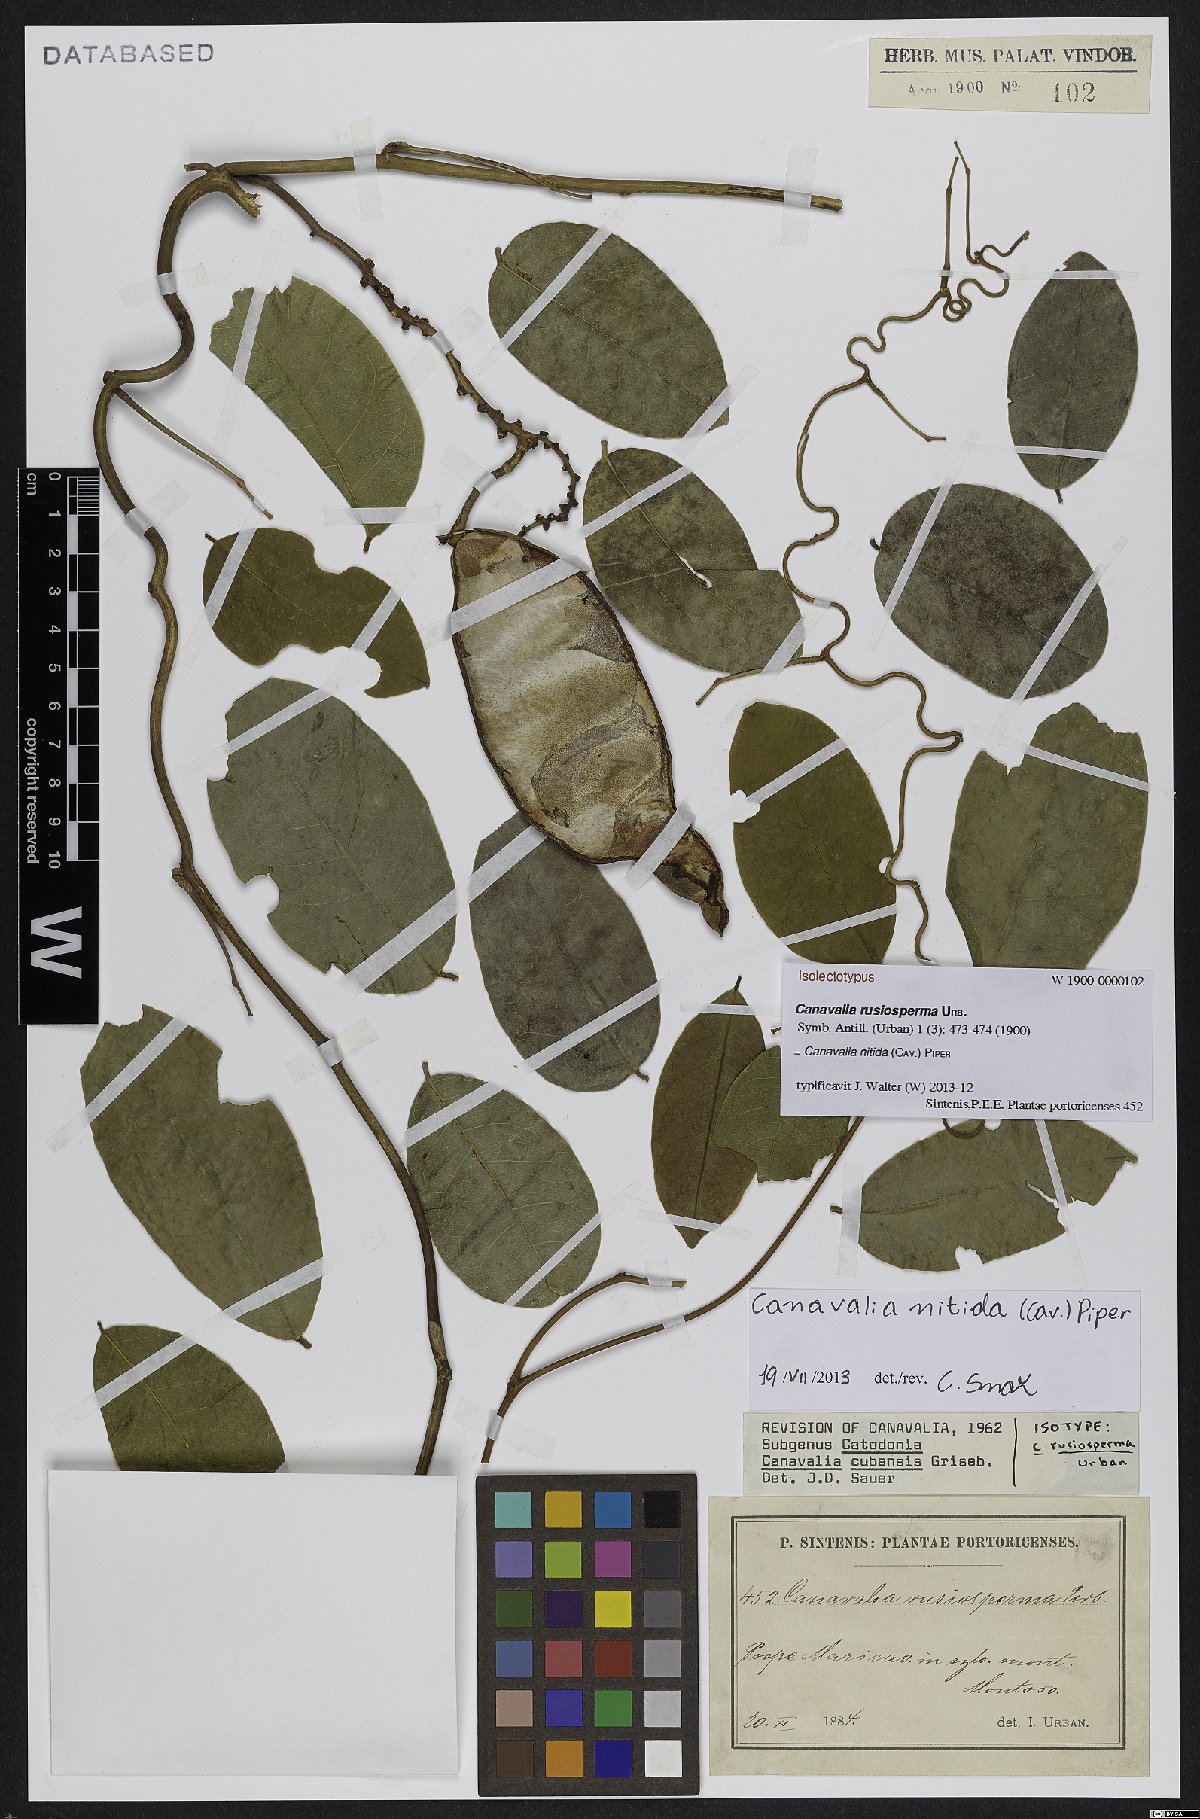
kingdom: Plantae
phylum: Tracheophyta
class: Magnoliopsida
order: Fabales
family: Fabaceae
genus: Canavalia
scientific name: Canavalia nitida
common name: Cathie's-bean
